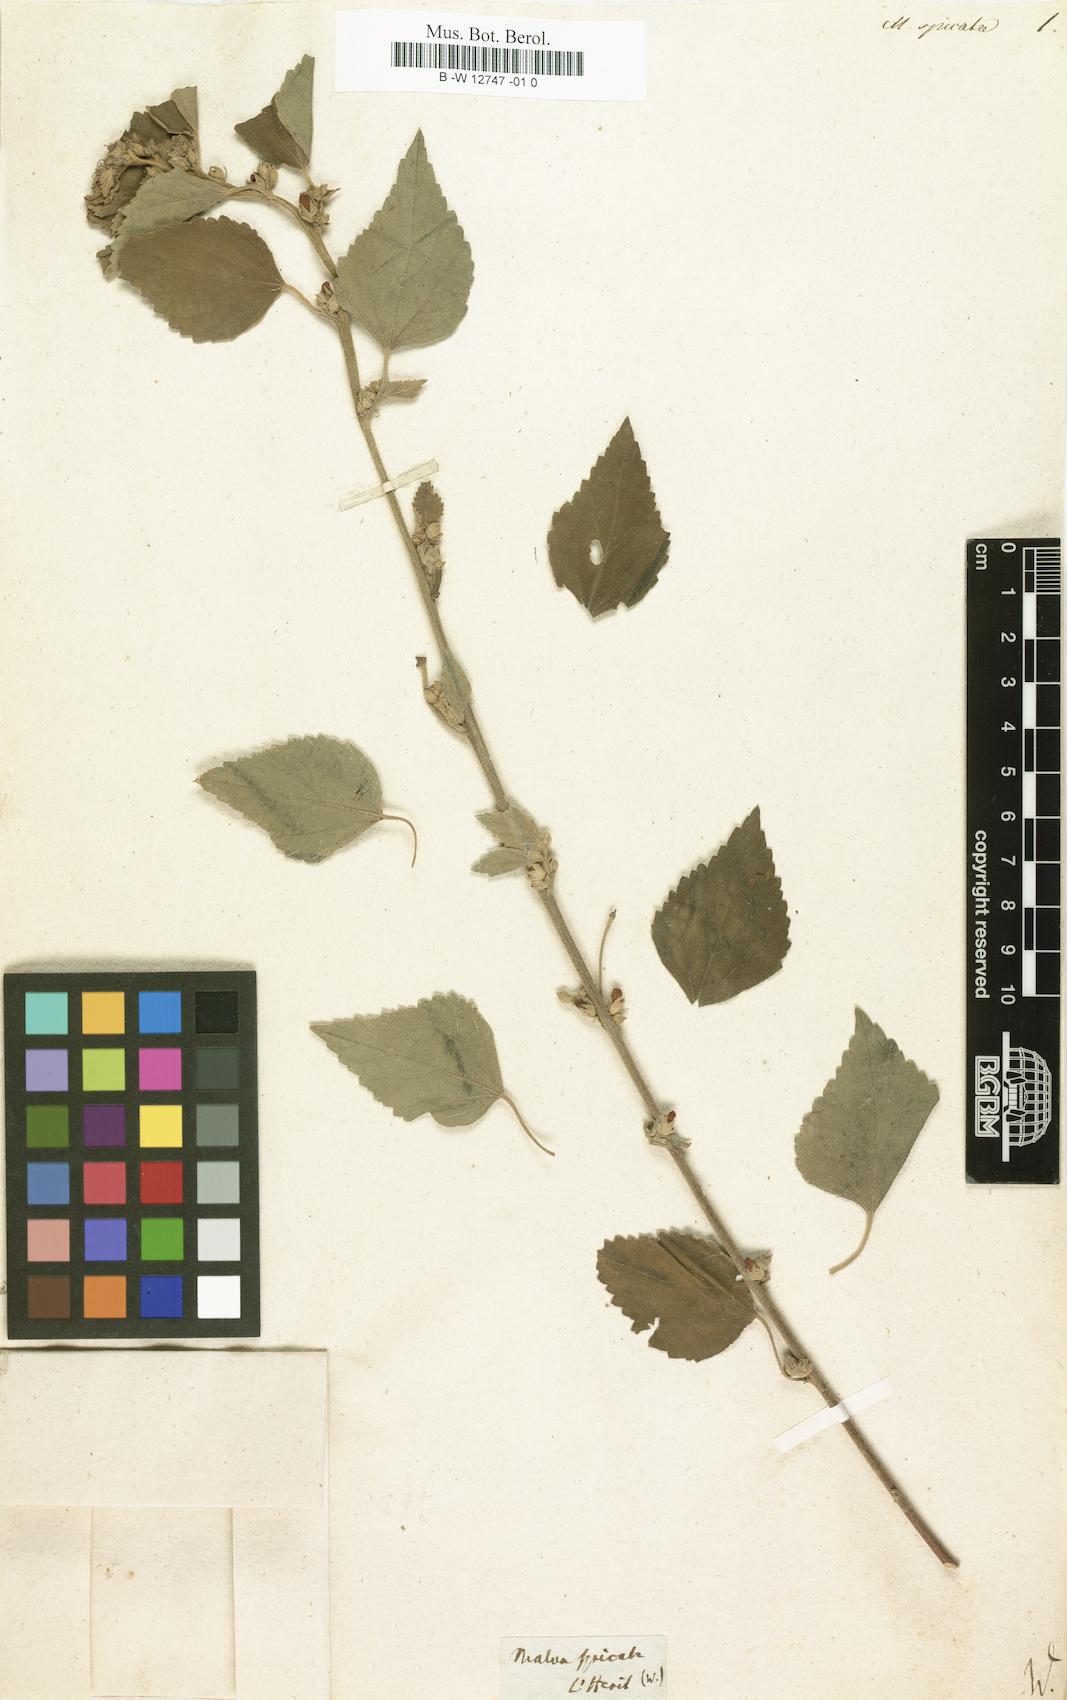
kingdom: Plantae
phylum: Tracheophyta
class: Magnoliopsida
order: Malvales
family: Malvaceae
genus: Melochia
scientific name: Melochia spicata
